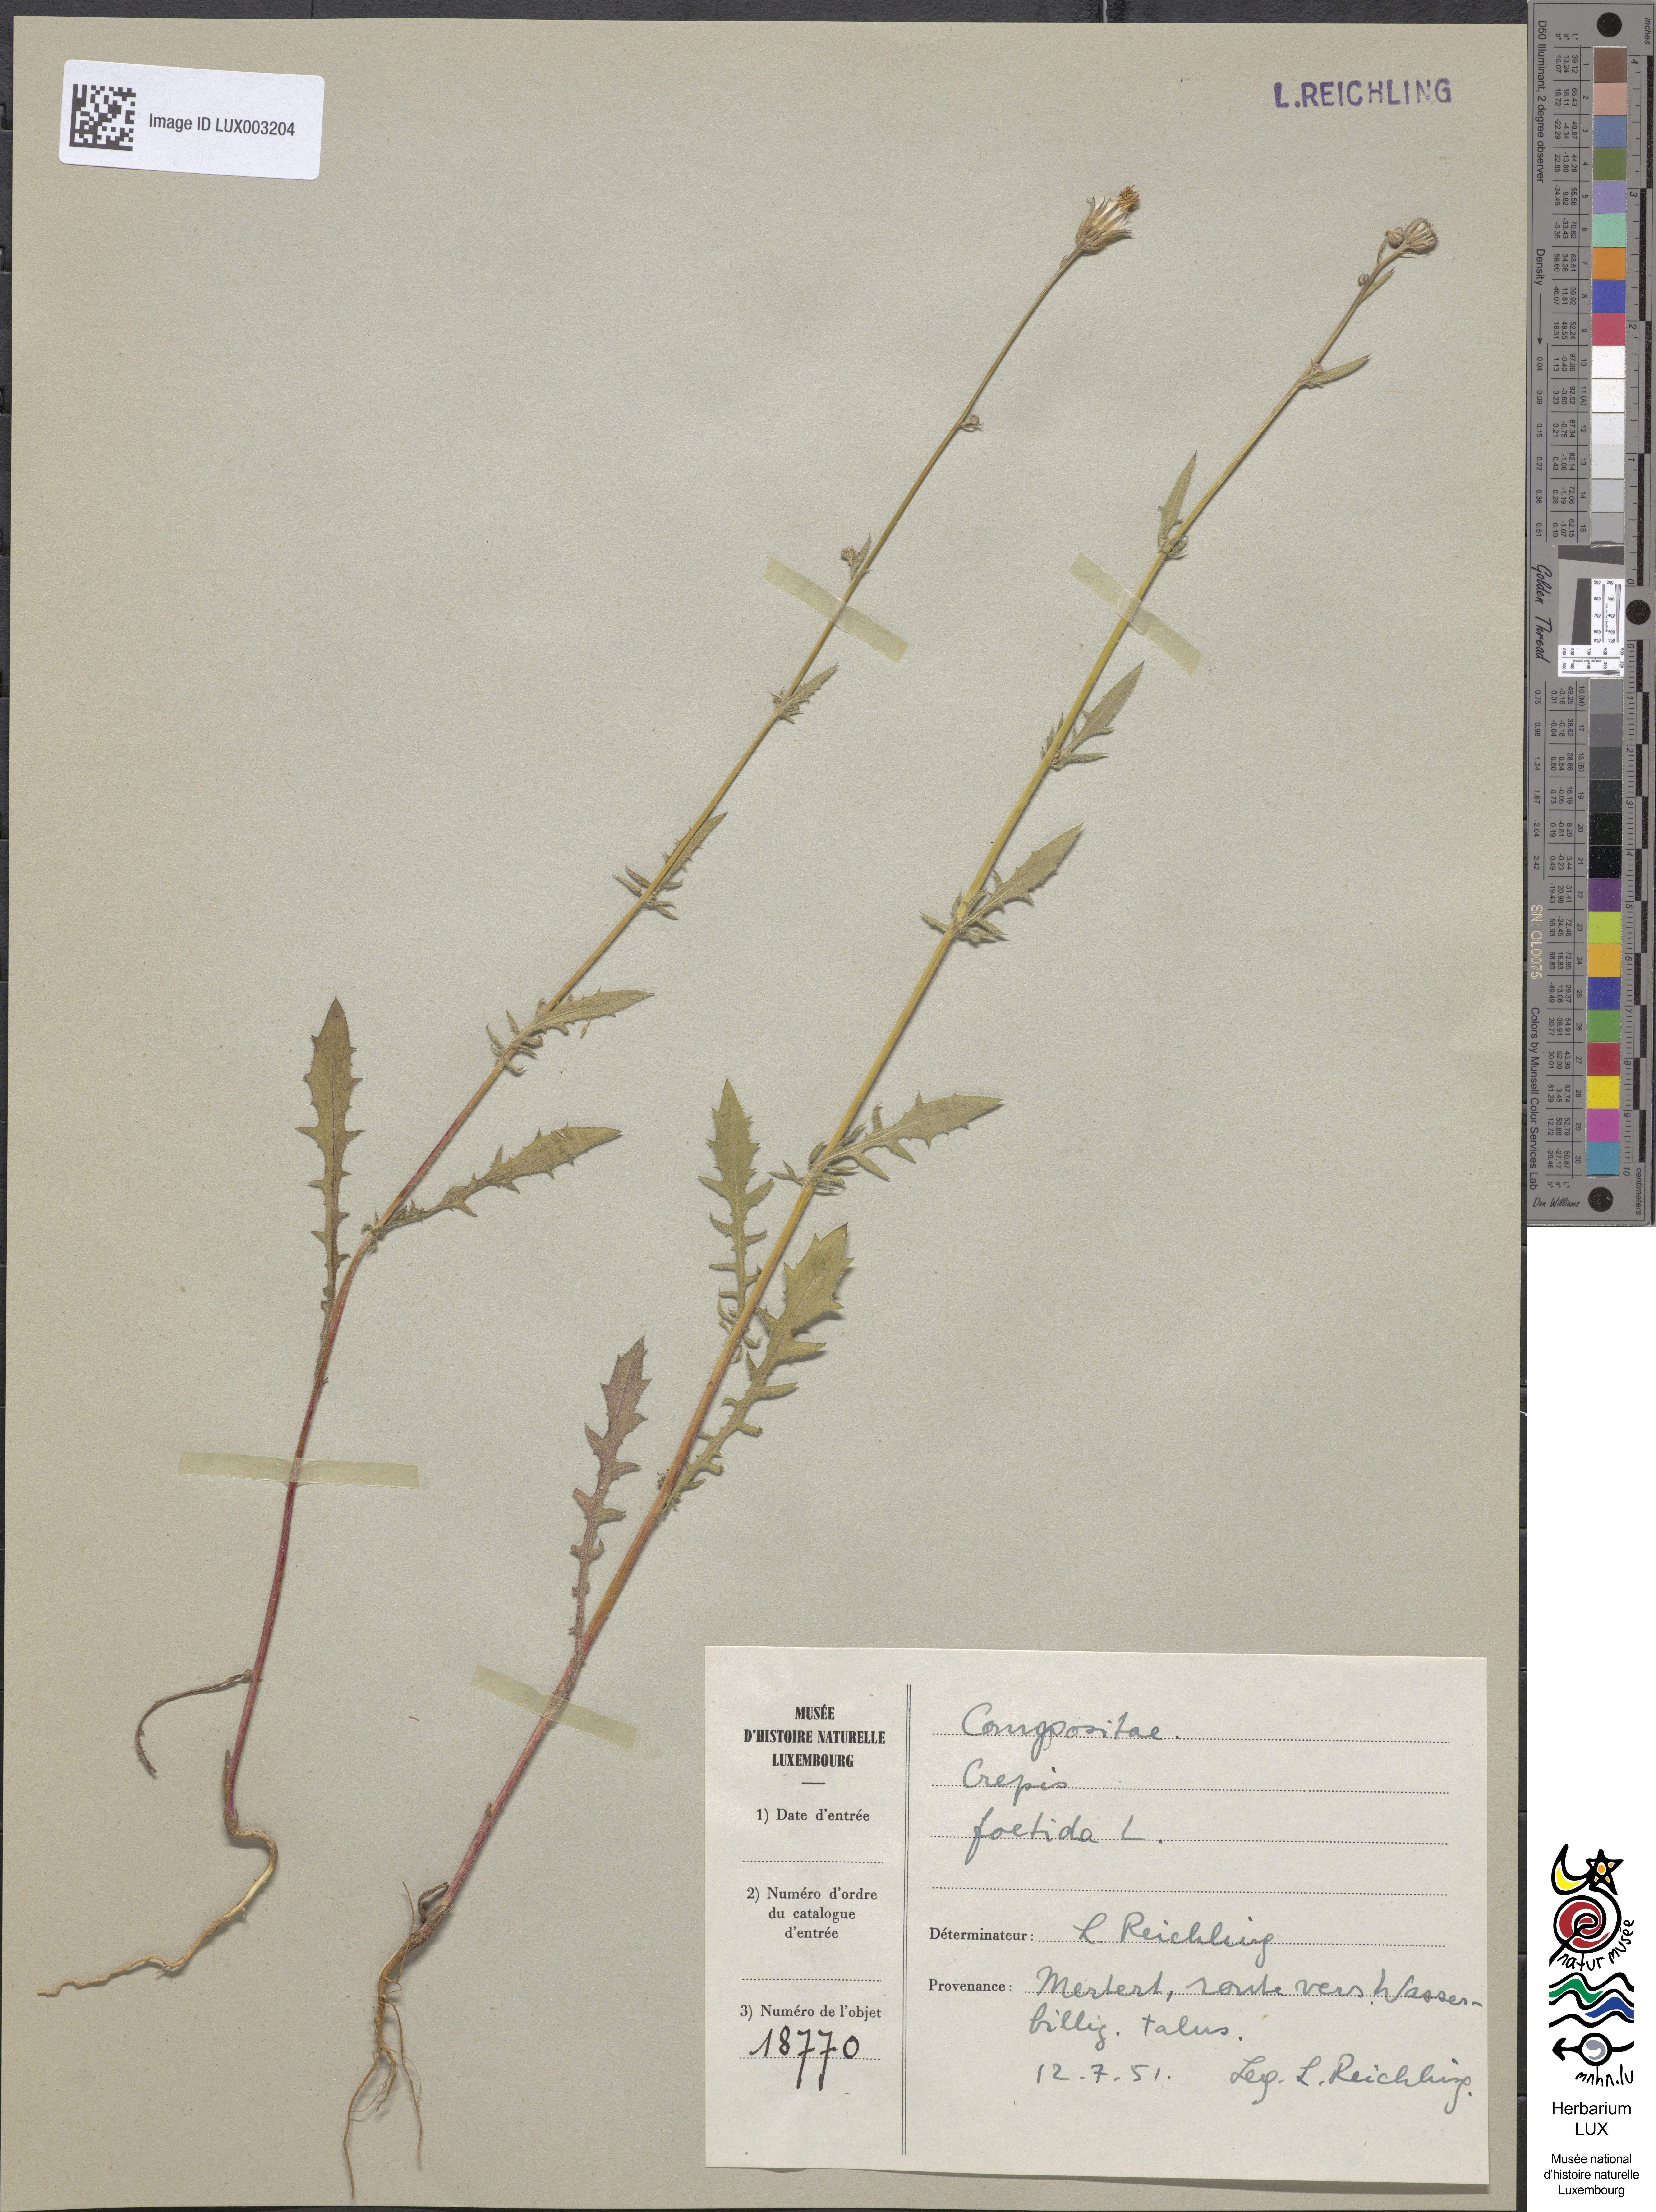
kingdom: Plantae
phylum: Tracheophyta
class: Magnoliopsida
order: Asterales
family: Asteraceae
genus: Crepis
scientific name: Crepis foetida
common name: Stinking hawk's-beard
